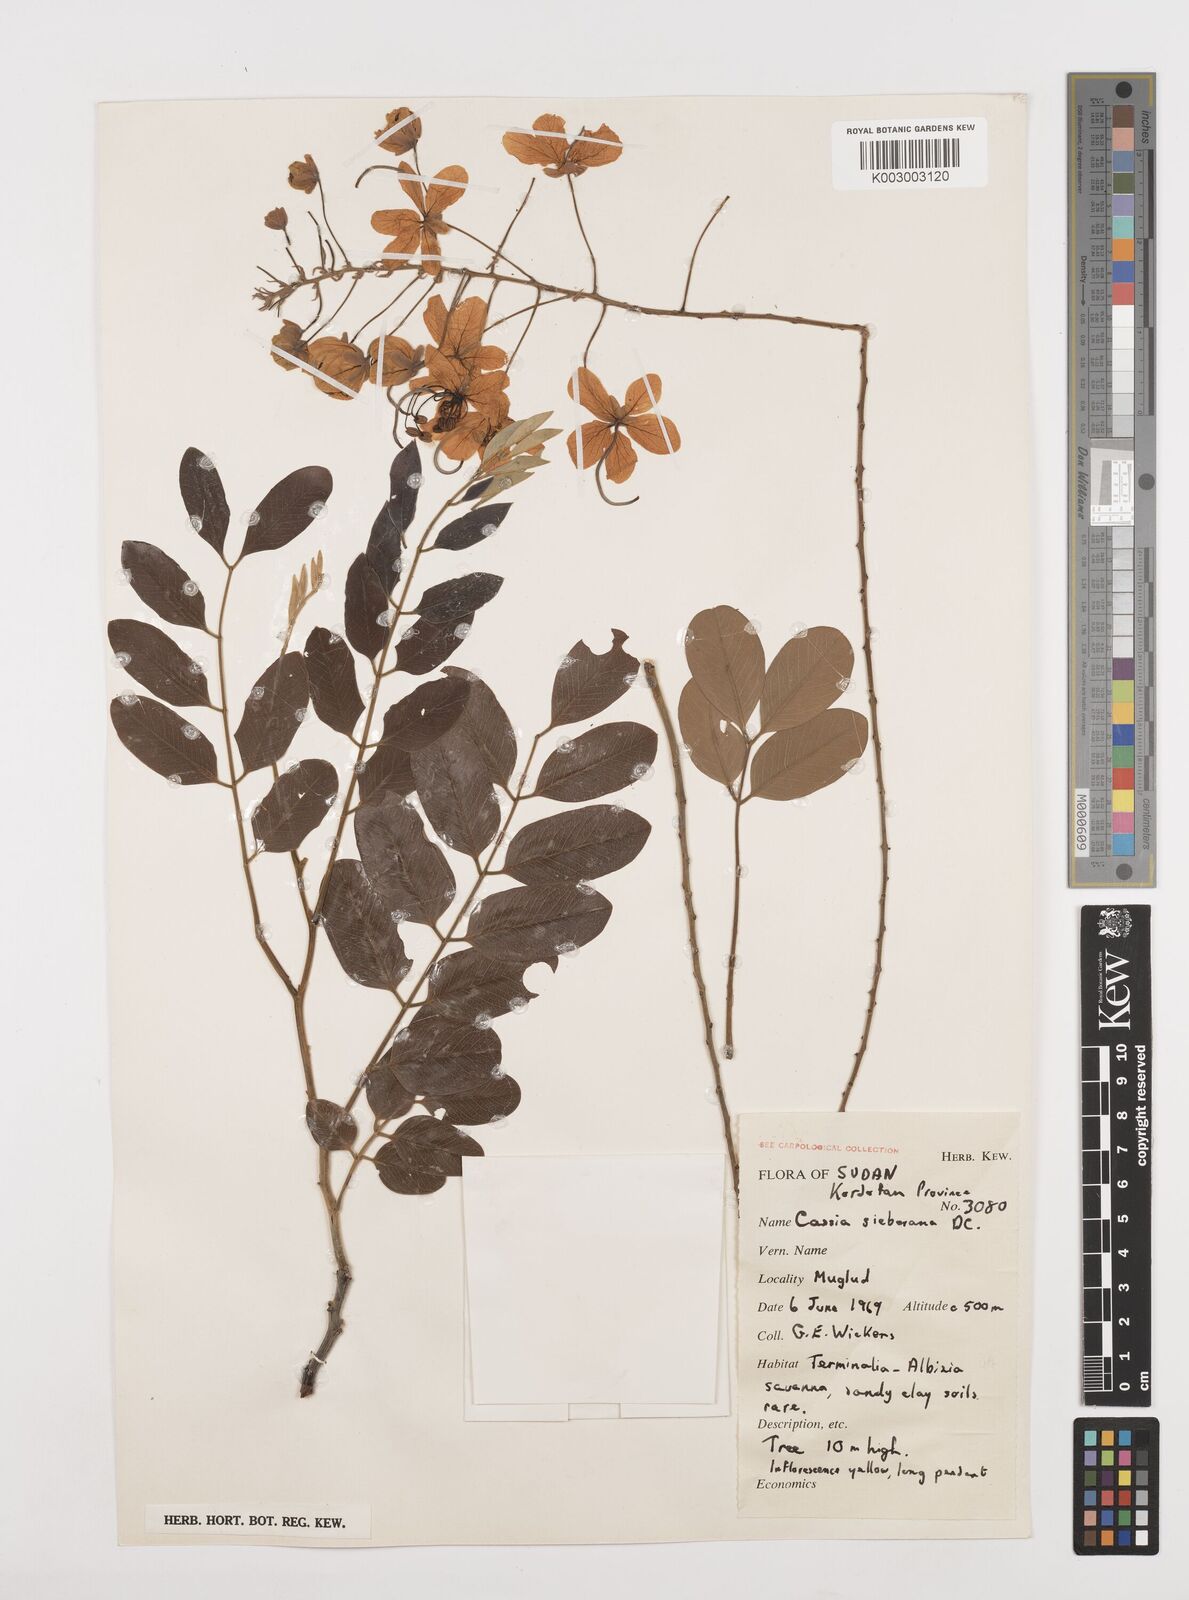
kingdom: Plantae
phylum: Tracheophyta
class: Magnoliopsida
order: Fabales
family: Fabaceae
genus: Cassia
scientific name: Cassia sieberiana
